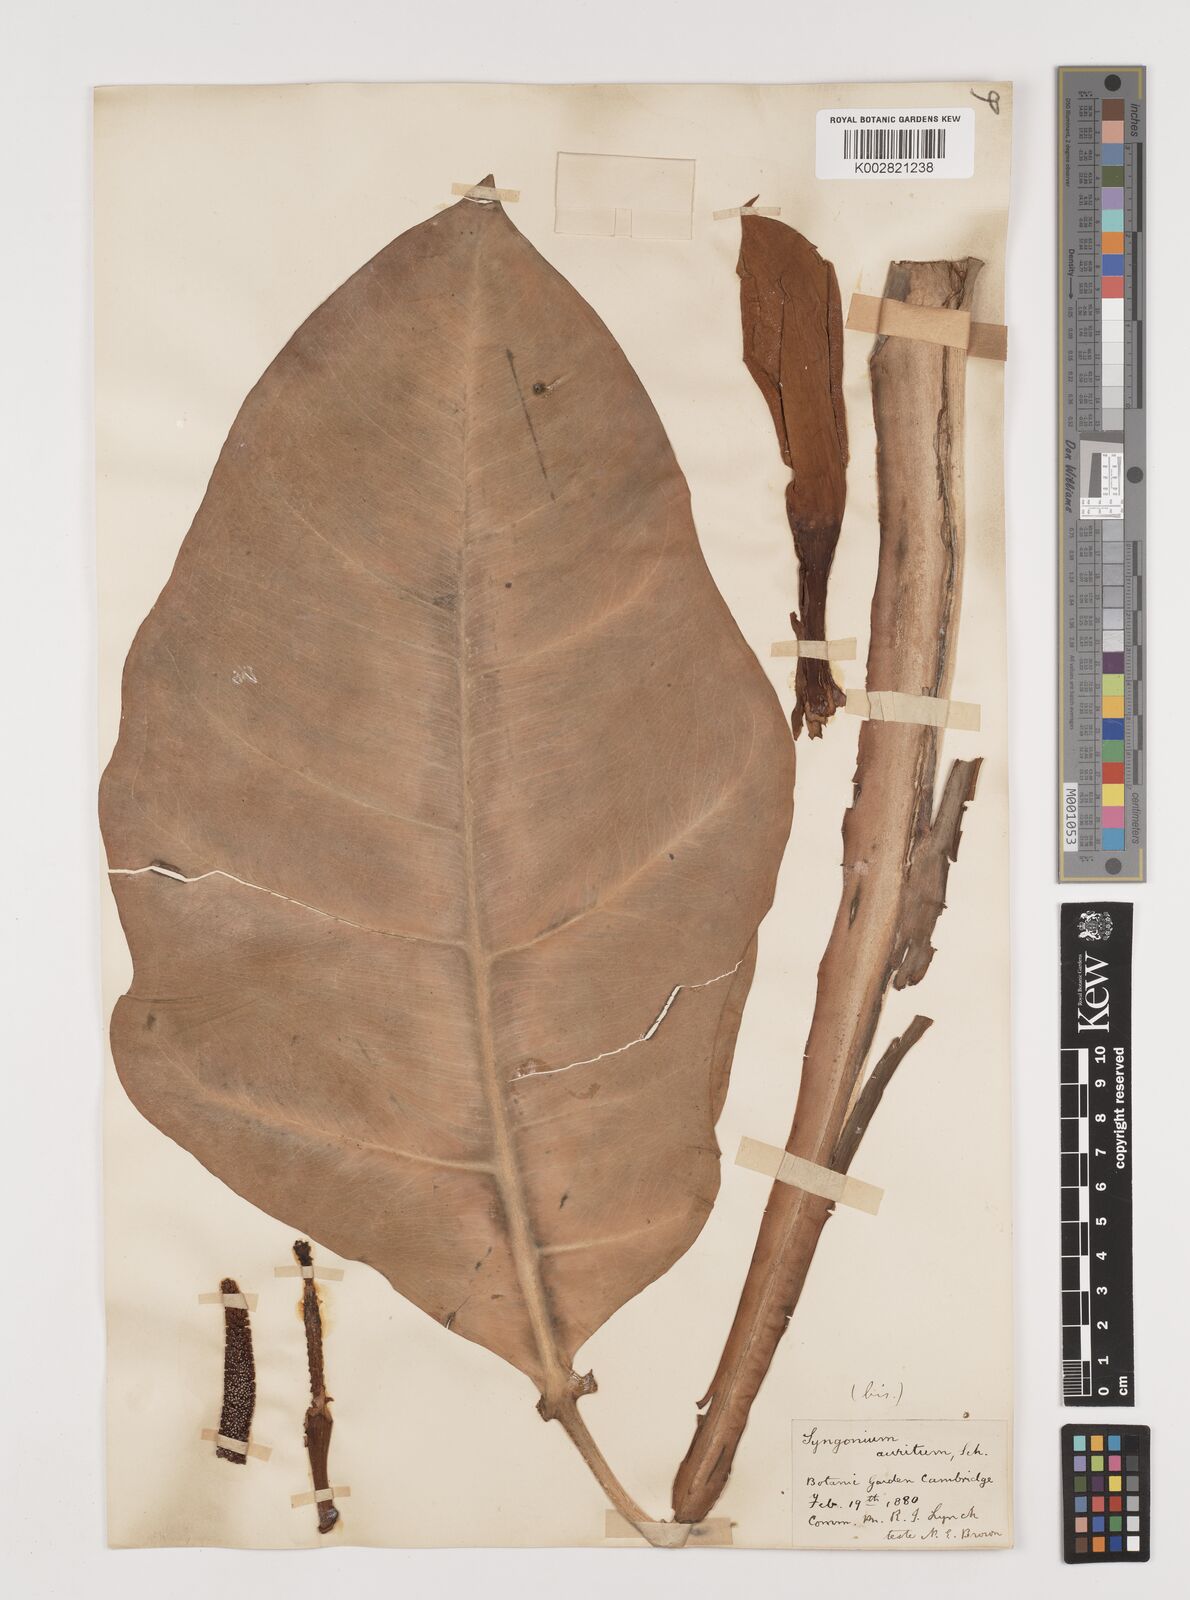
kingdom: Plantae
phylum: Tracheophyta
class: Liliopsida
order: Alismatales
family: Araceae
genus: Syngonium
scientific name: Syngonium auritum
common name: Five-fingers
